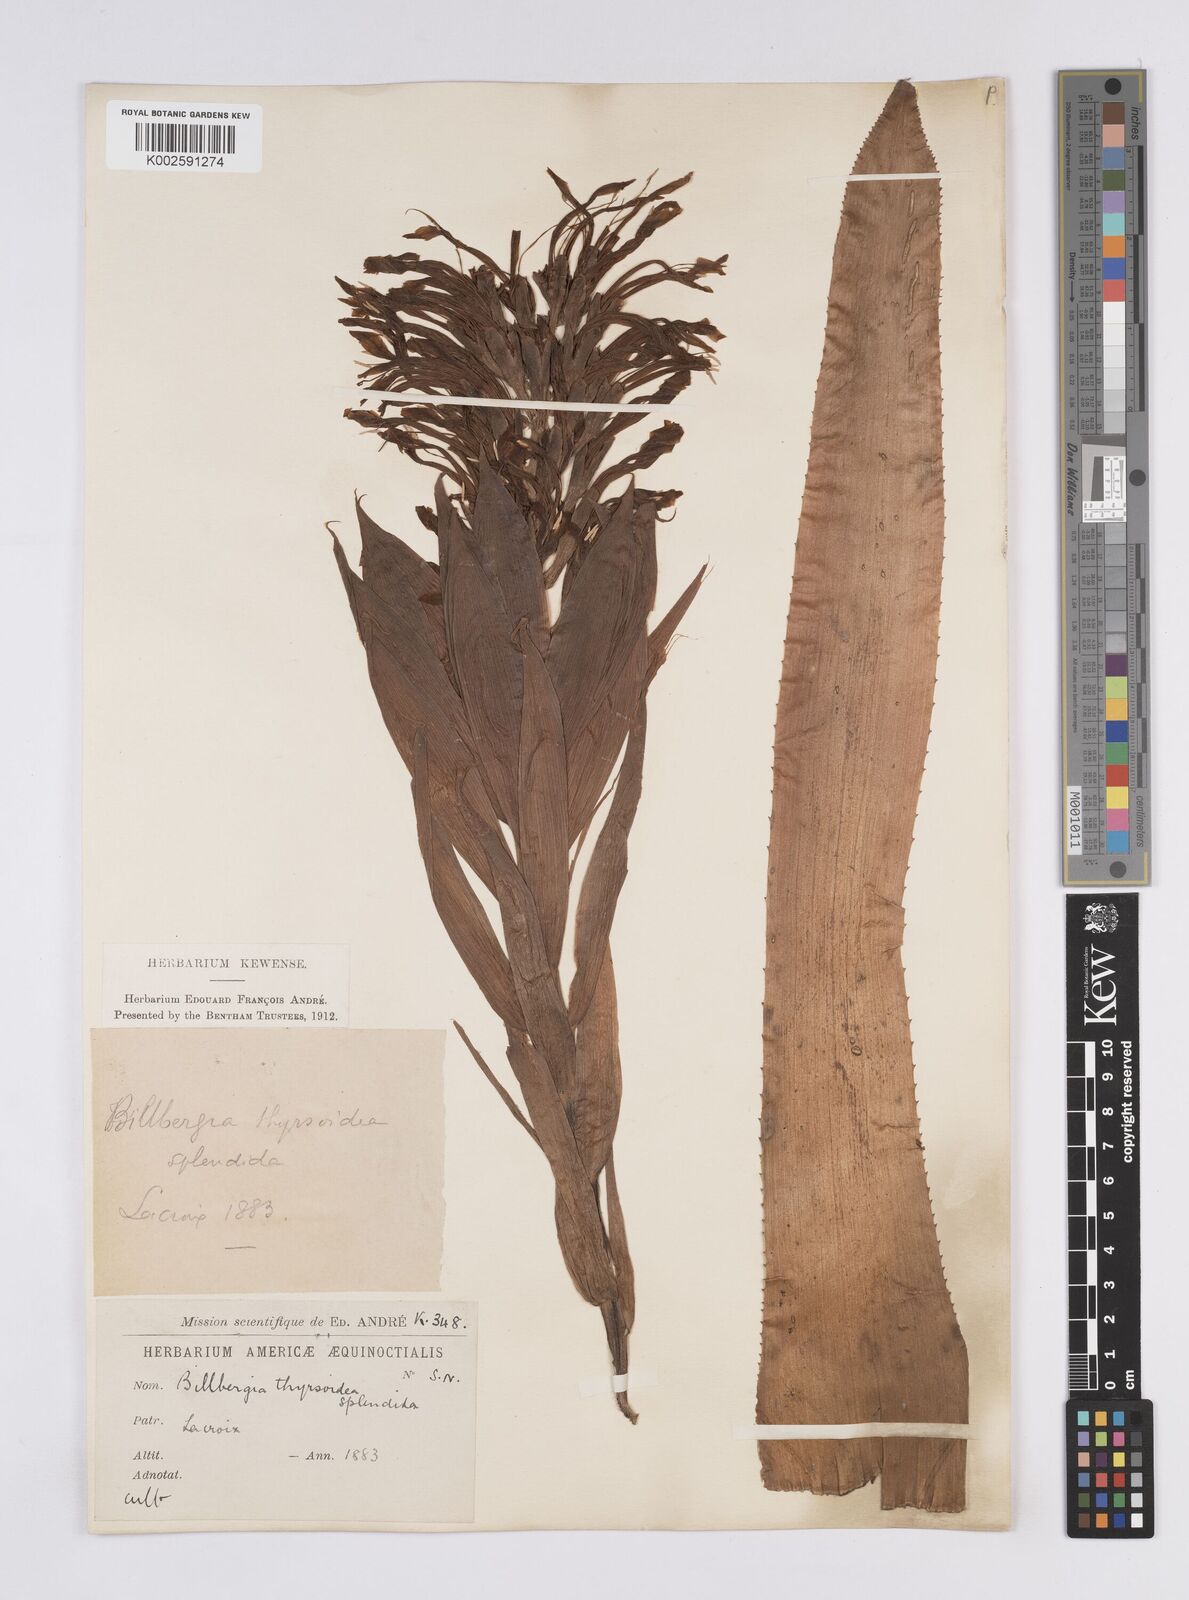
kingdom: Plantae
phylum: Tracheophyta
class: Liliopsida
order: Poales
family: Bromeliaceae
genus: Billbergia
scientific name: Billbergia pyramidalis
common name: Foolproofplant
